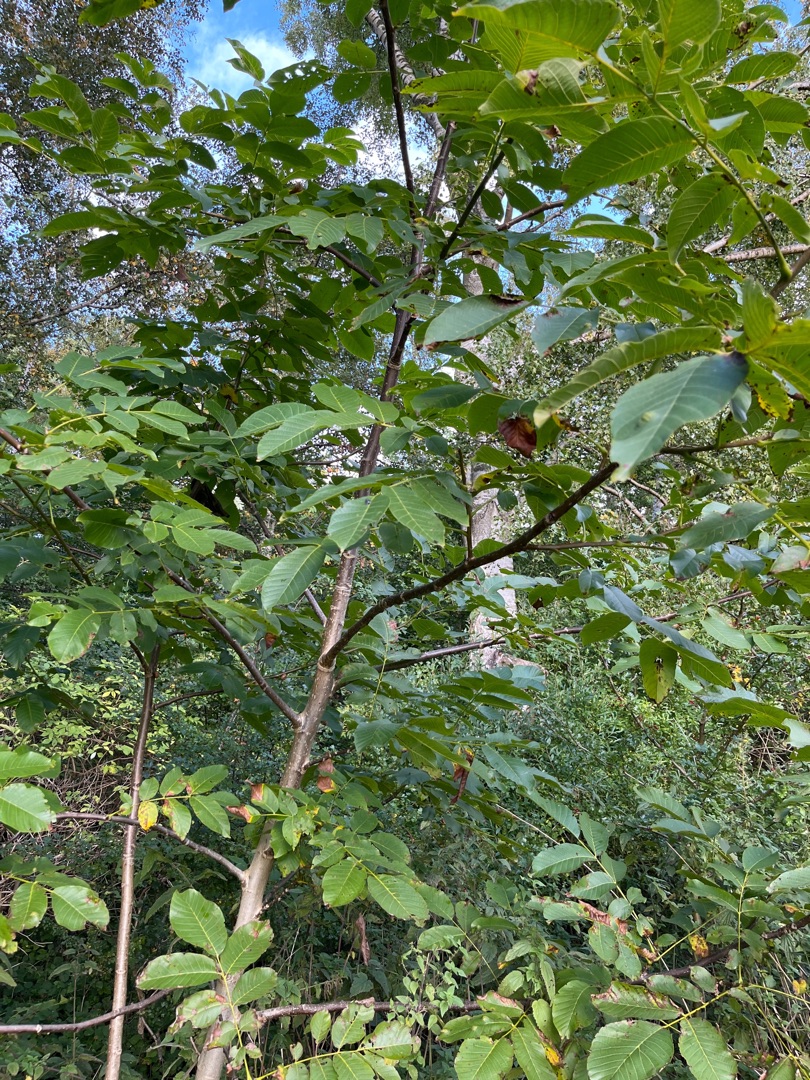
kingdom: Plantae
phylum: Tracheophyta
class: Magnoliopsida
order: Fagales
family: Juglandaceae
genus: Juglans
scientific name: Juglans regia
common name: Almindelig valnød
